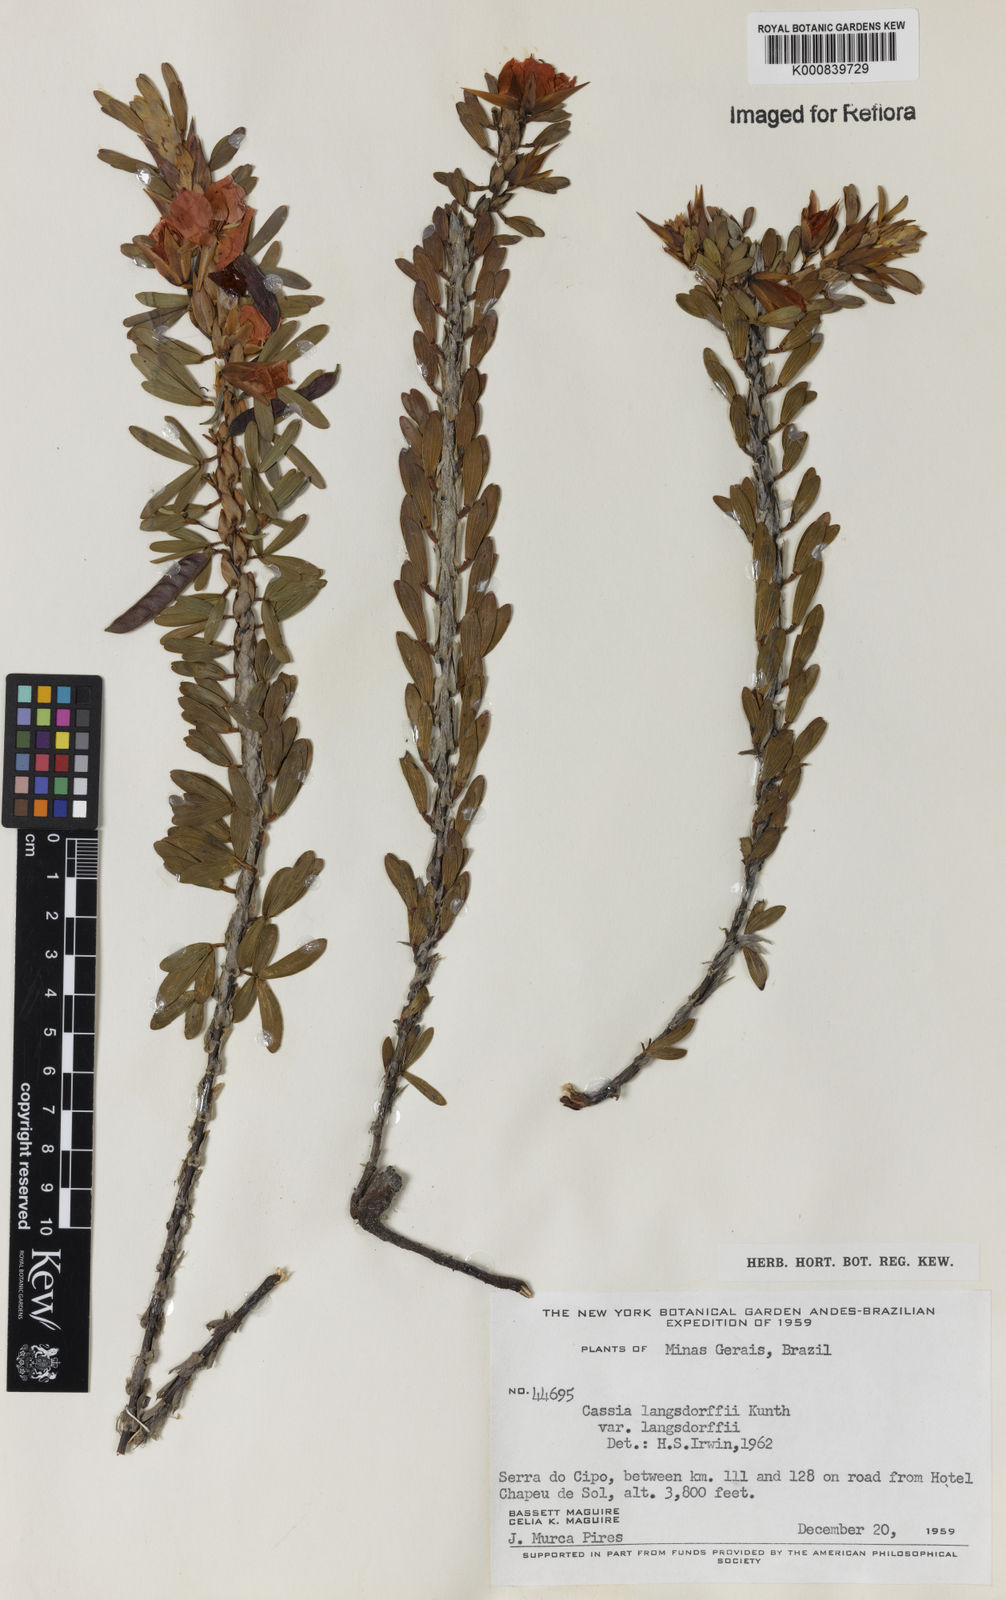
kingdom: Plantae
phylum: Tracheophyta
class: Magnoliopsida
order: Fabales
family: Fabaceae
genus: Chamaecrista
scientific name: Chamaecrista langsdorffii
